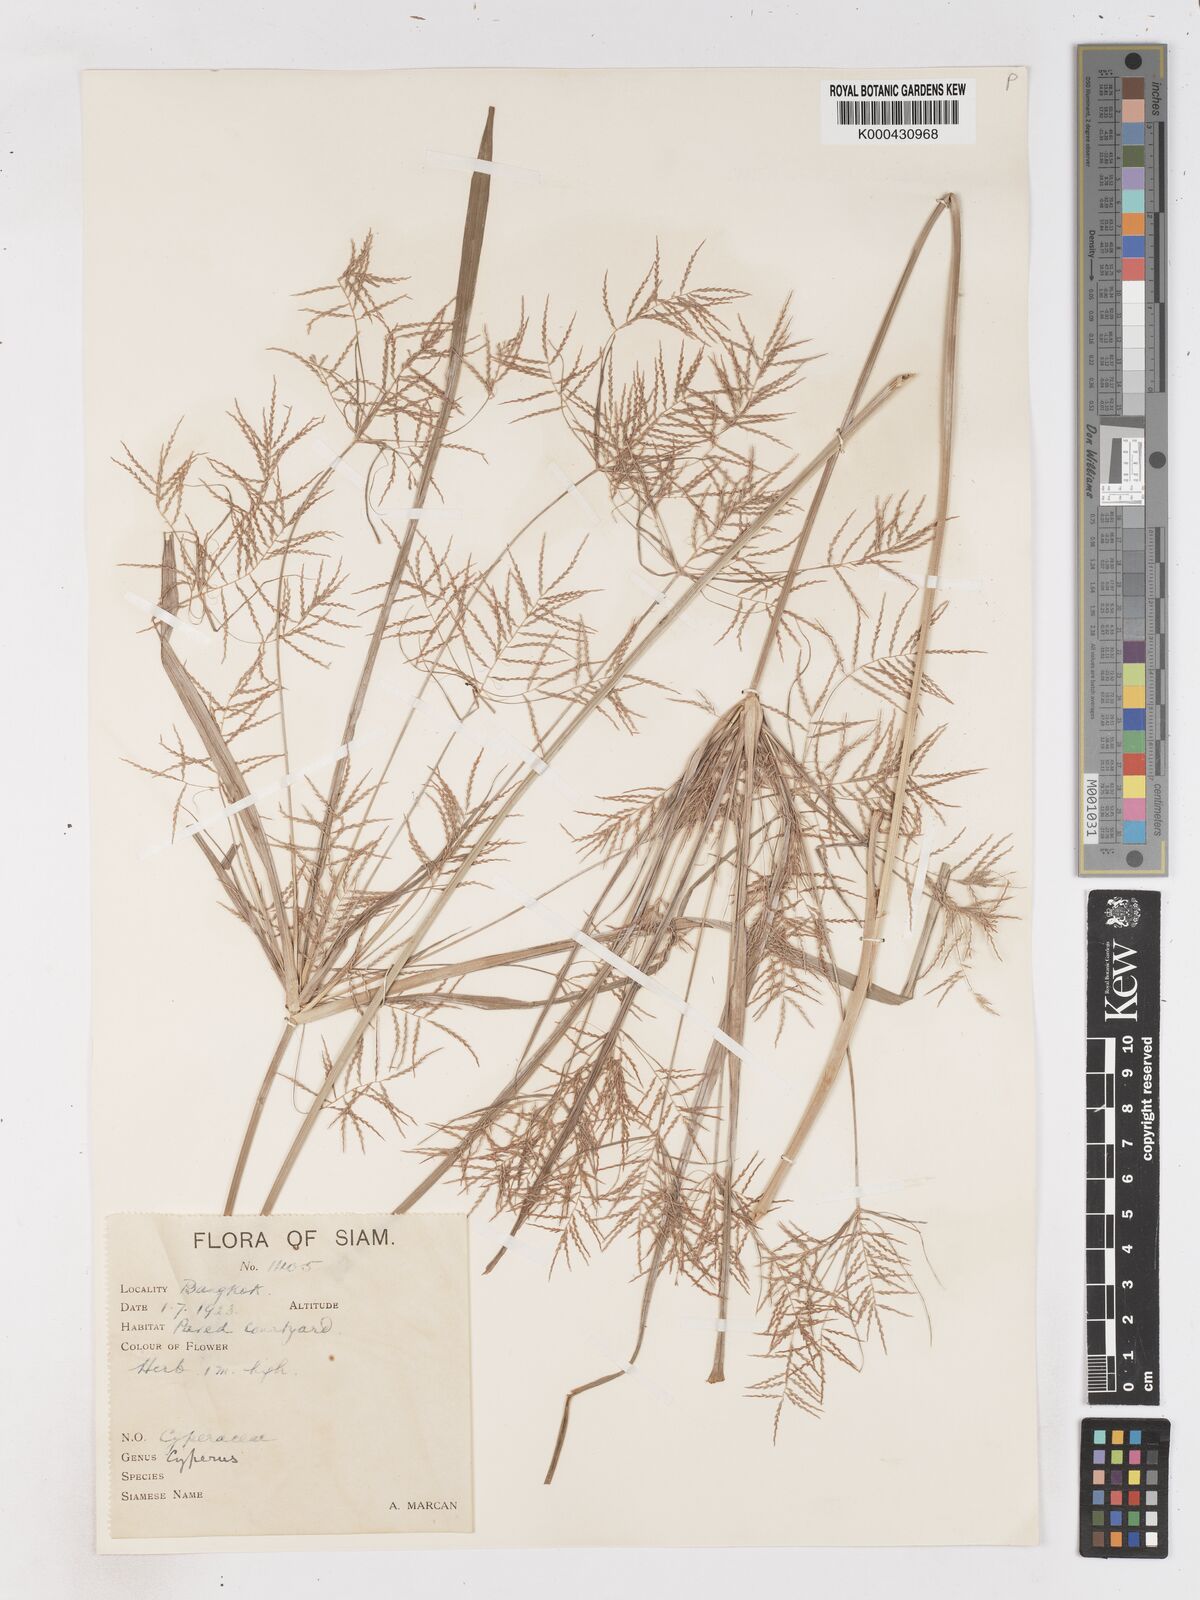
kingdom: Plantae
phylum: Tracheophyta
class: Liliopsida
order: Poales
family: Cyperaceae
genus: Cyperus
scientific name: Cyperus distans
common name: Slender cyperus
